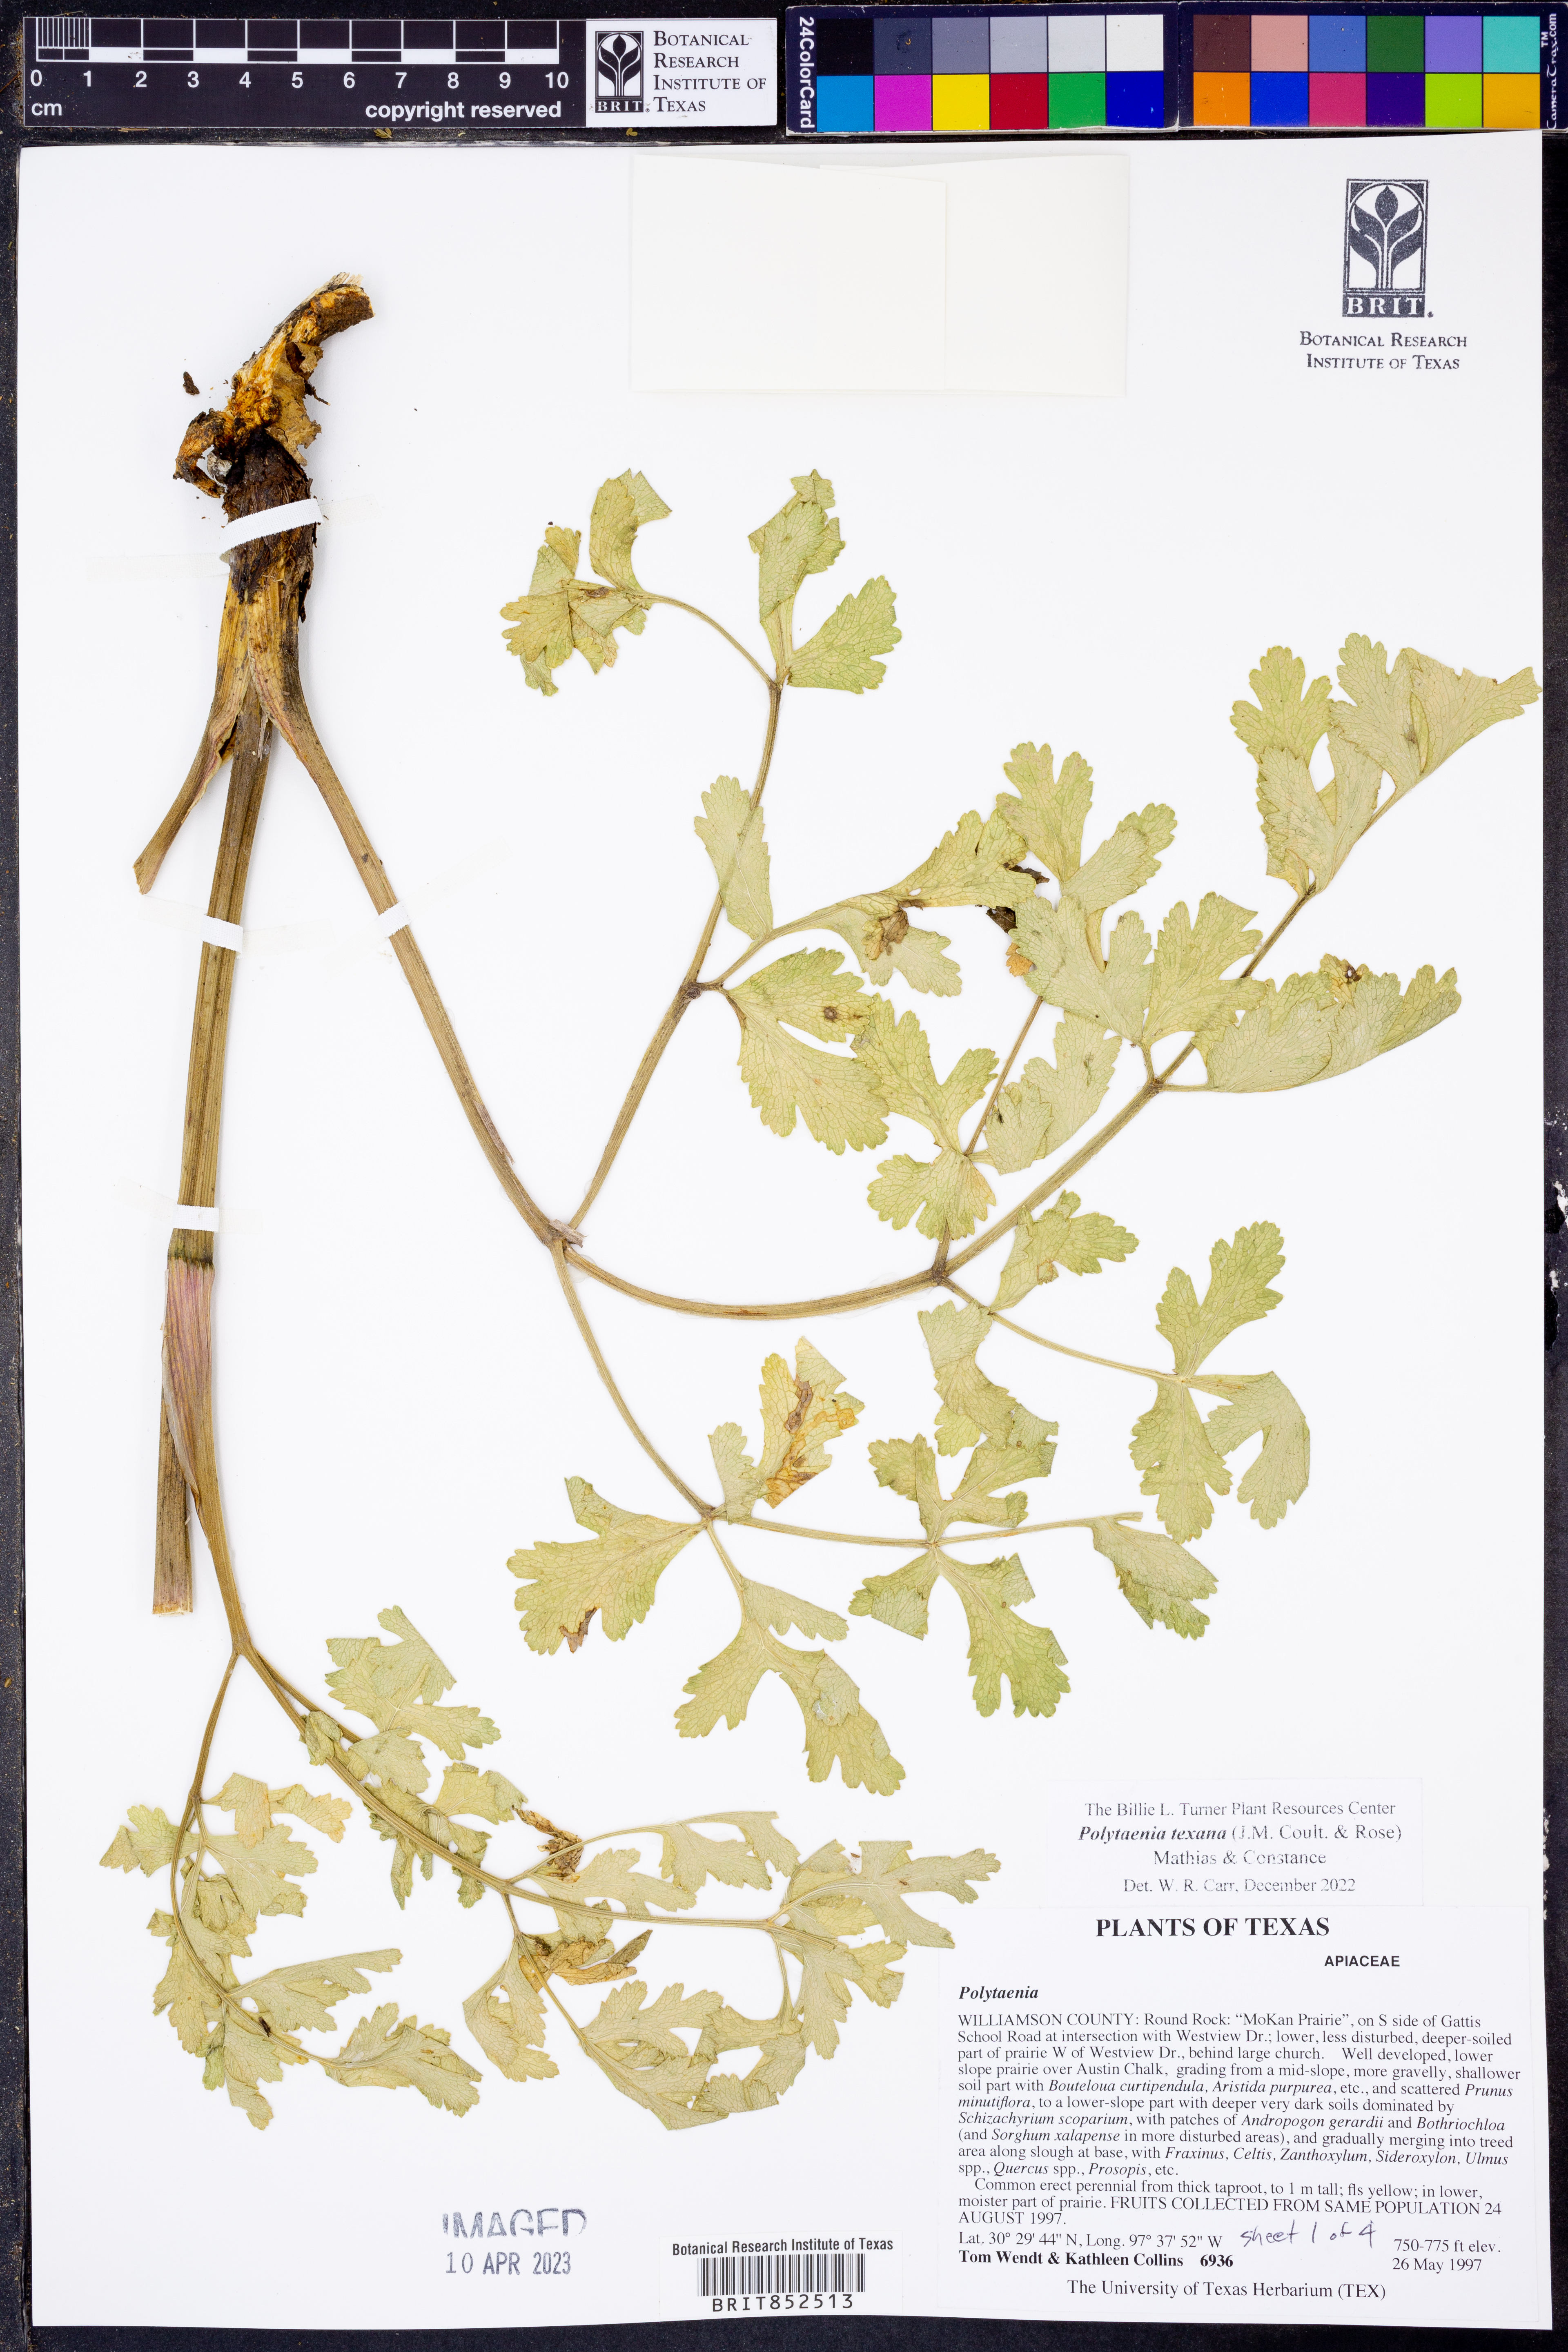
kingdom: Plantae
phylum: Tracheophyta
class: Magnoliopsida
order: Apiales
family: Apiaceae
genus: Polytaenia
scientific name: Polytaenia texana
